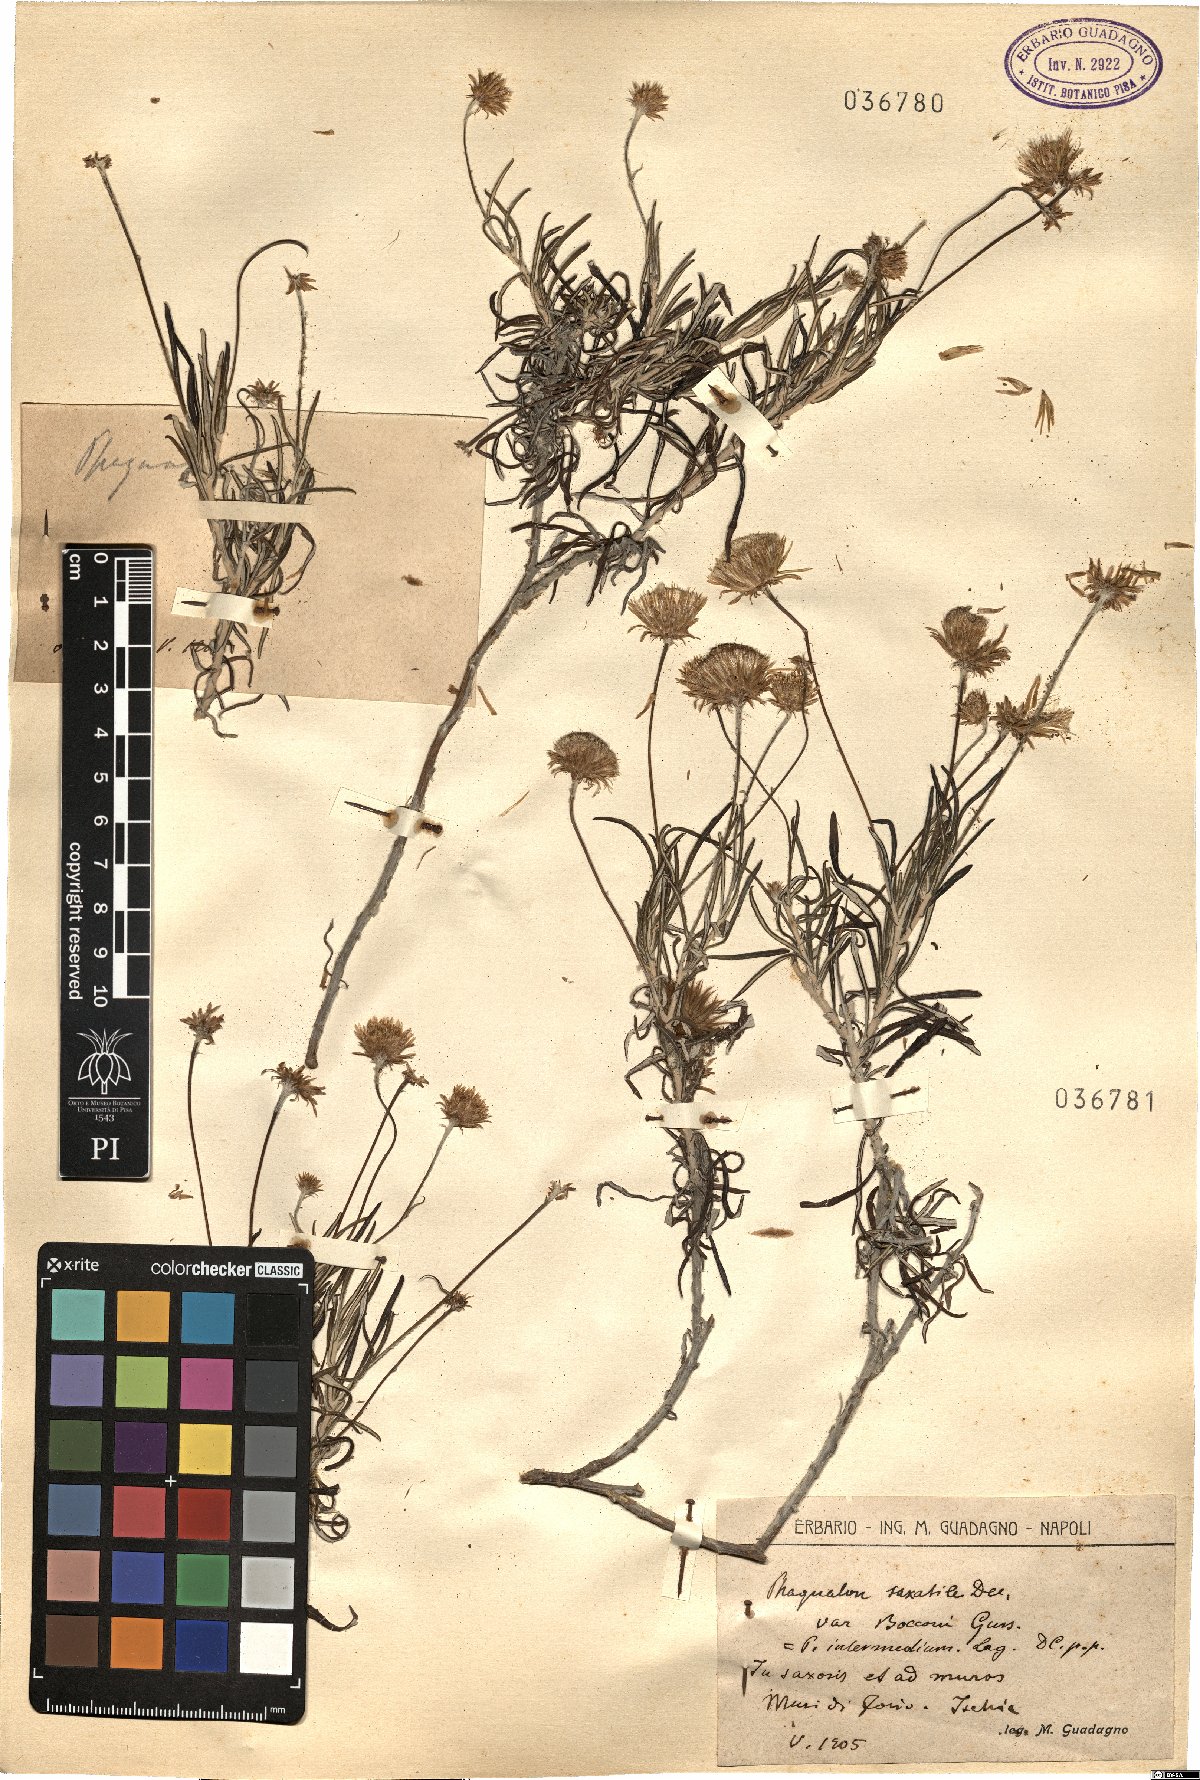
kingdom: Plantae
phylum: Tracheophyta
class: Magnoliopsida
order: Asterales
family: Asteraceae
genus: Phagnalon
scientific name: Phagnalon
